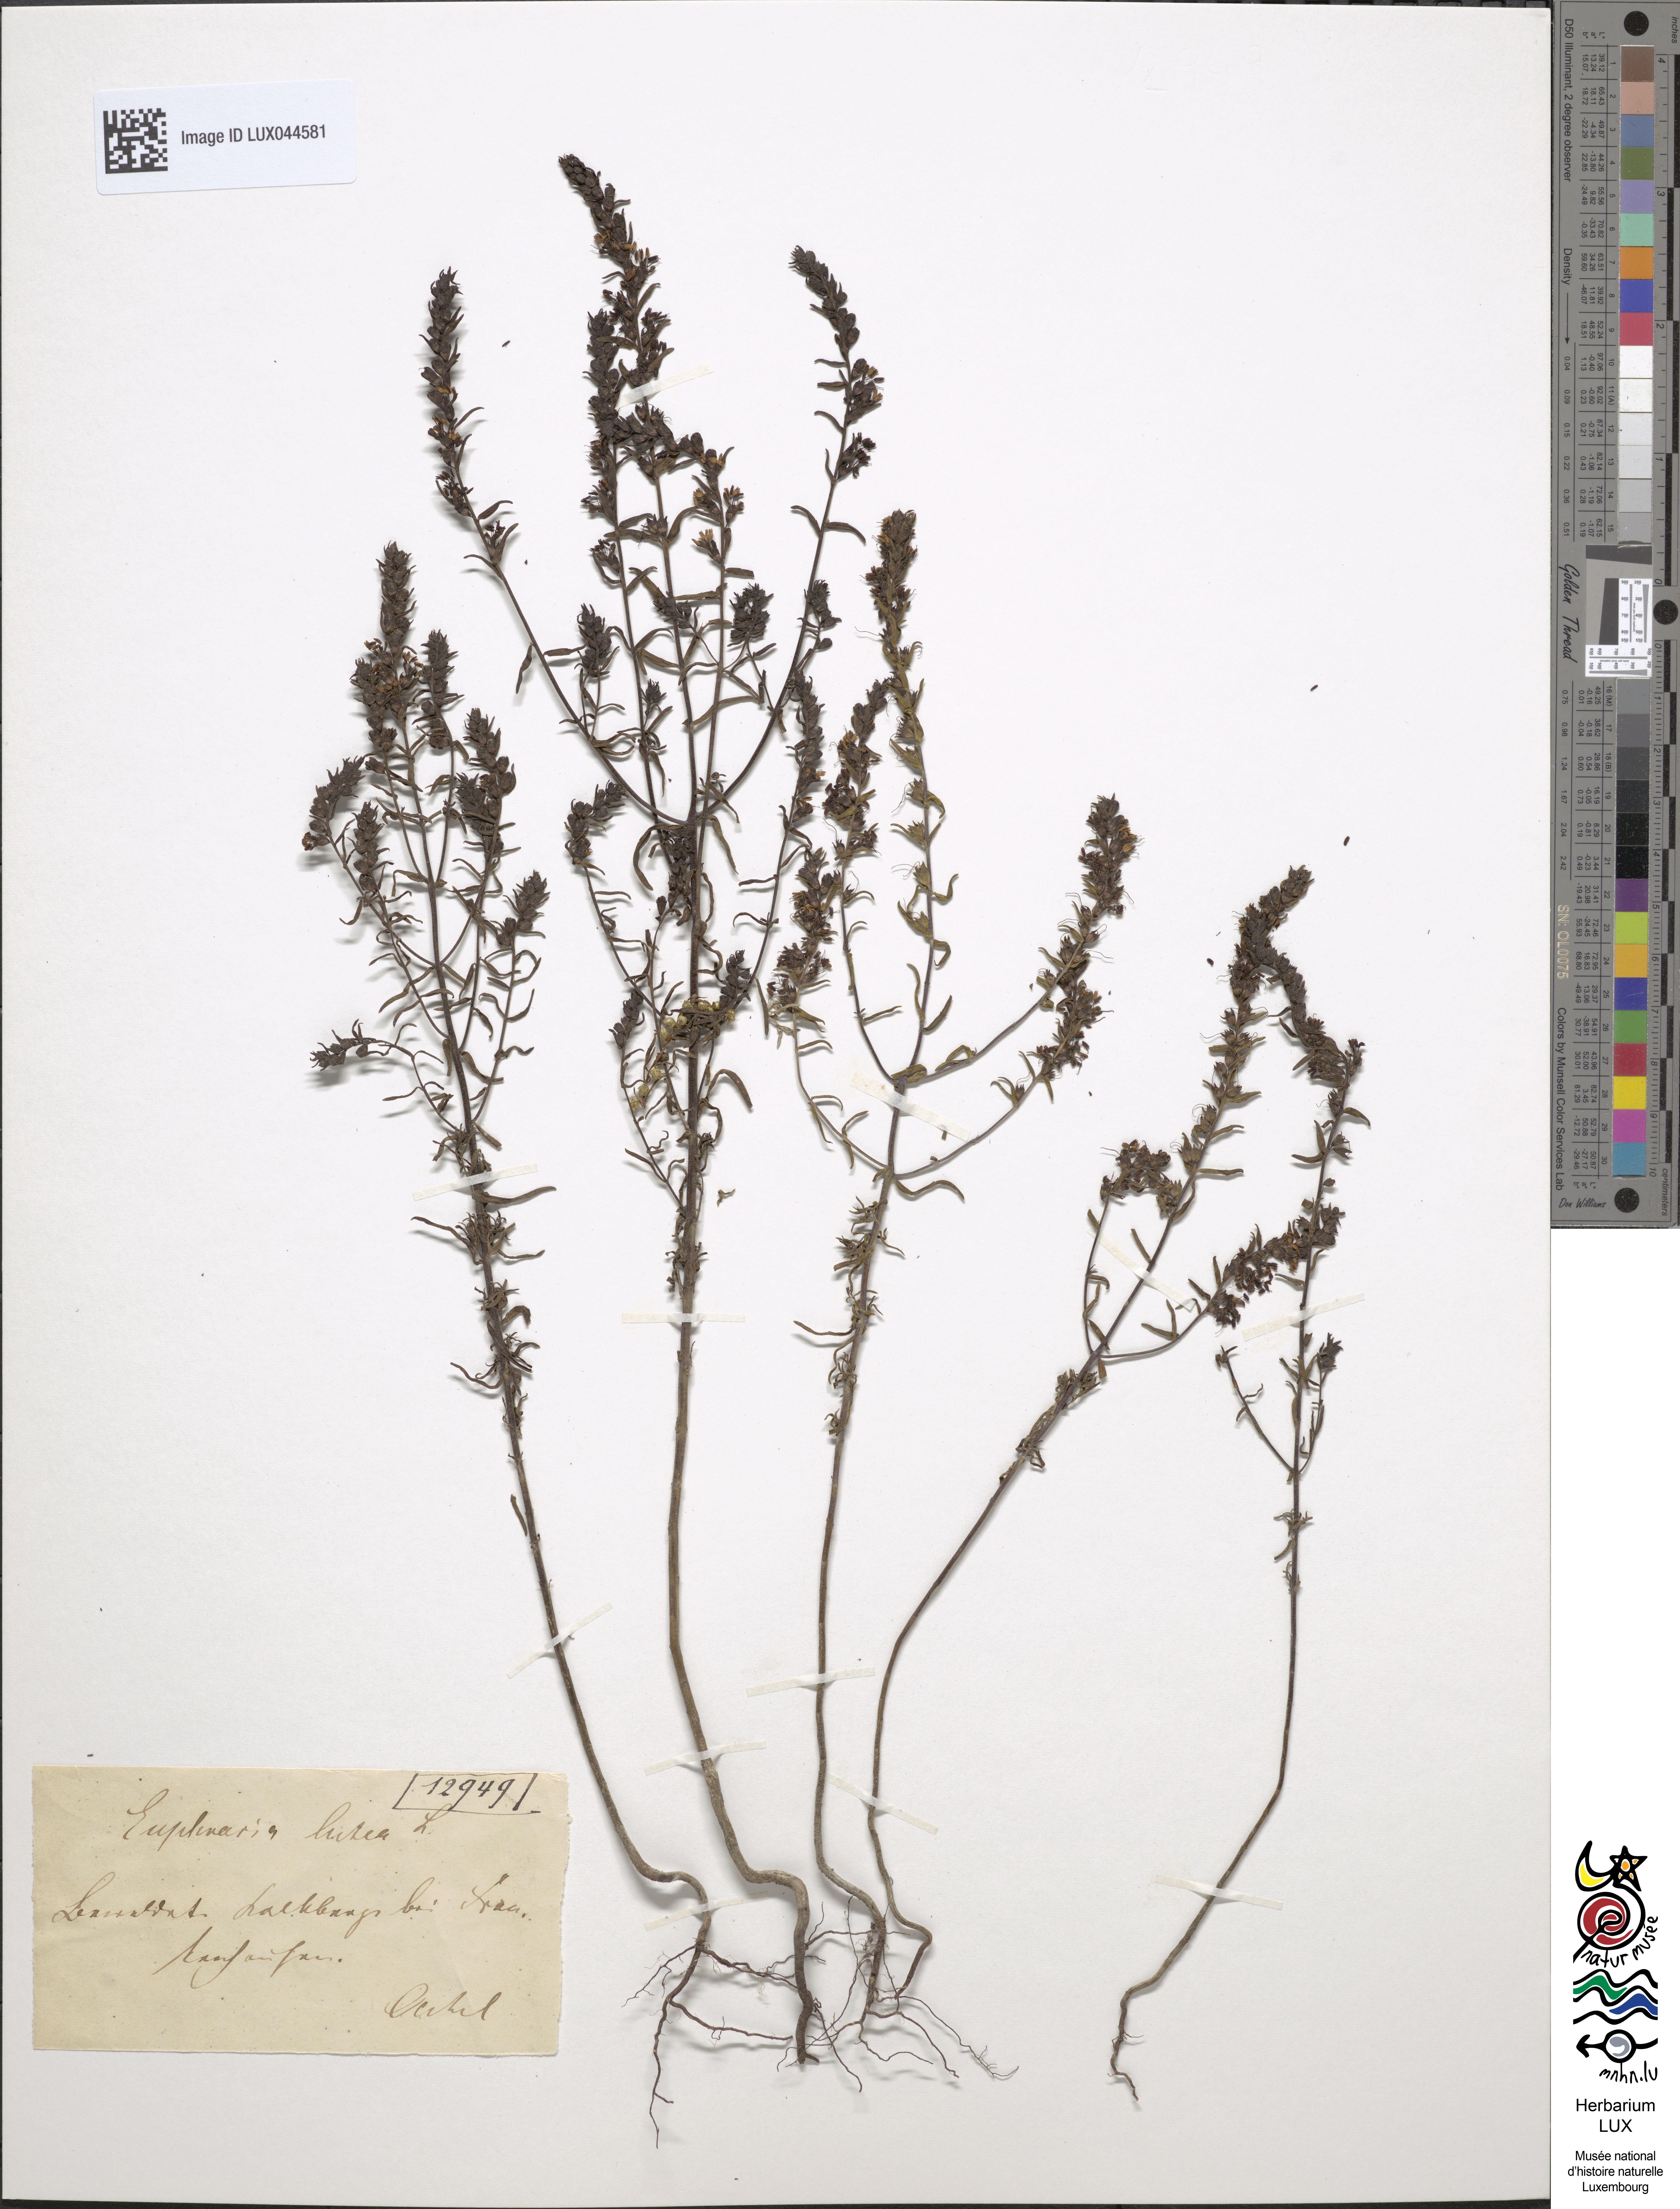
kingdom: Plantae
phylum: Tracheophyta
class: Magnoliopsida
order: Lamiales
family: Orobanchaceae
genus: Odontites
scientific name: Odontites luteus
